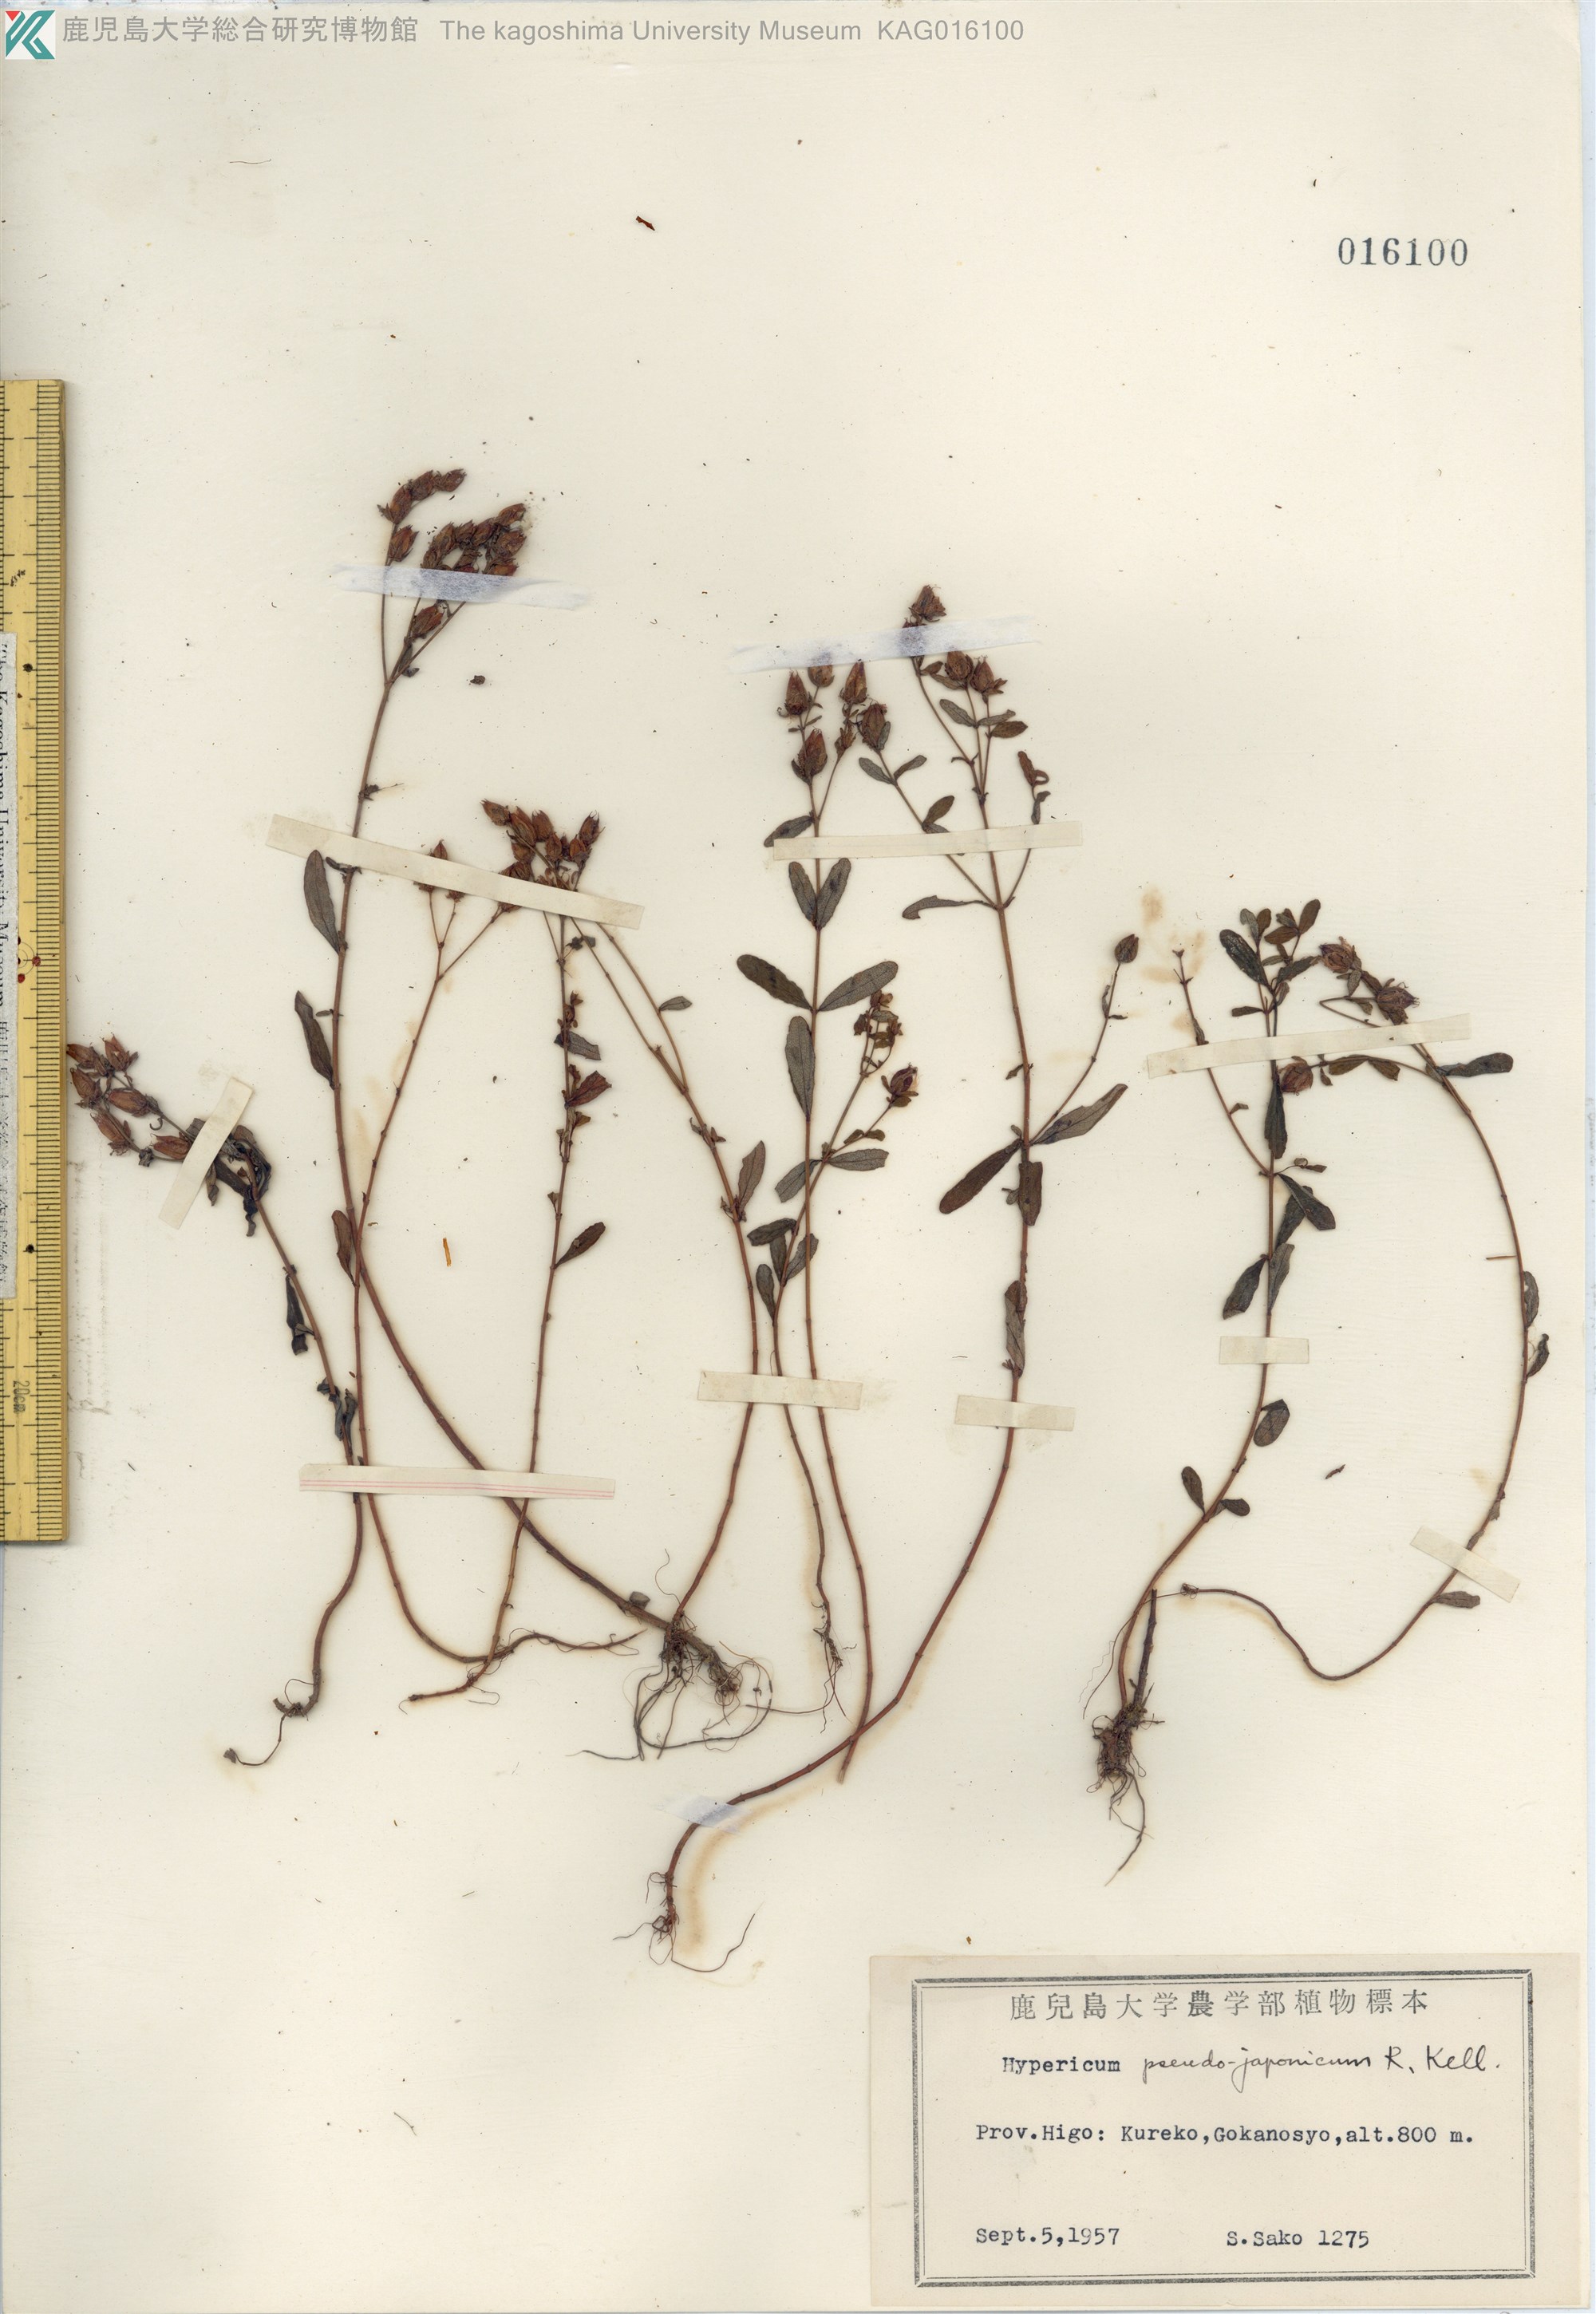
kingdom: Plantae
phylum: Tracheophyta
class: Magnoliopsida
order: Malpighiales
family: Hypericaceae
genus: Hypericum
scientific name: Hypericum pseudopetiolatum
